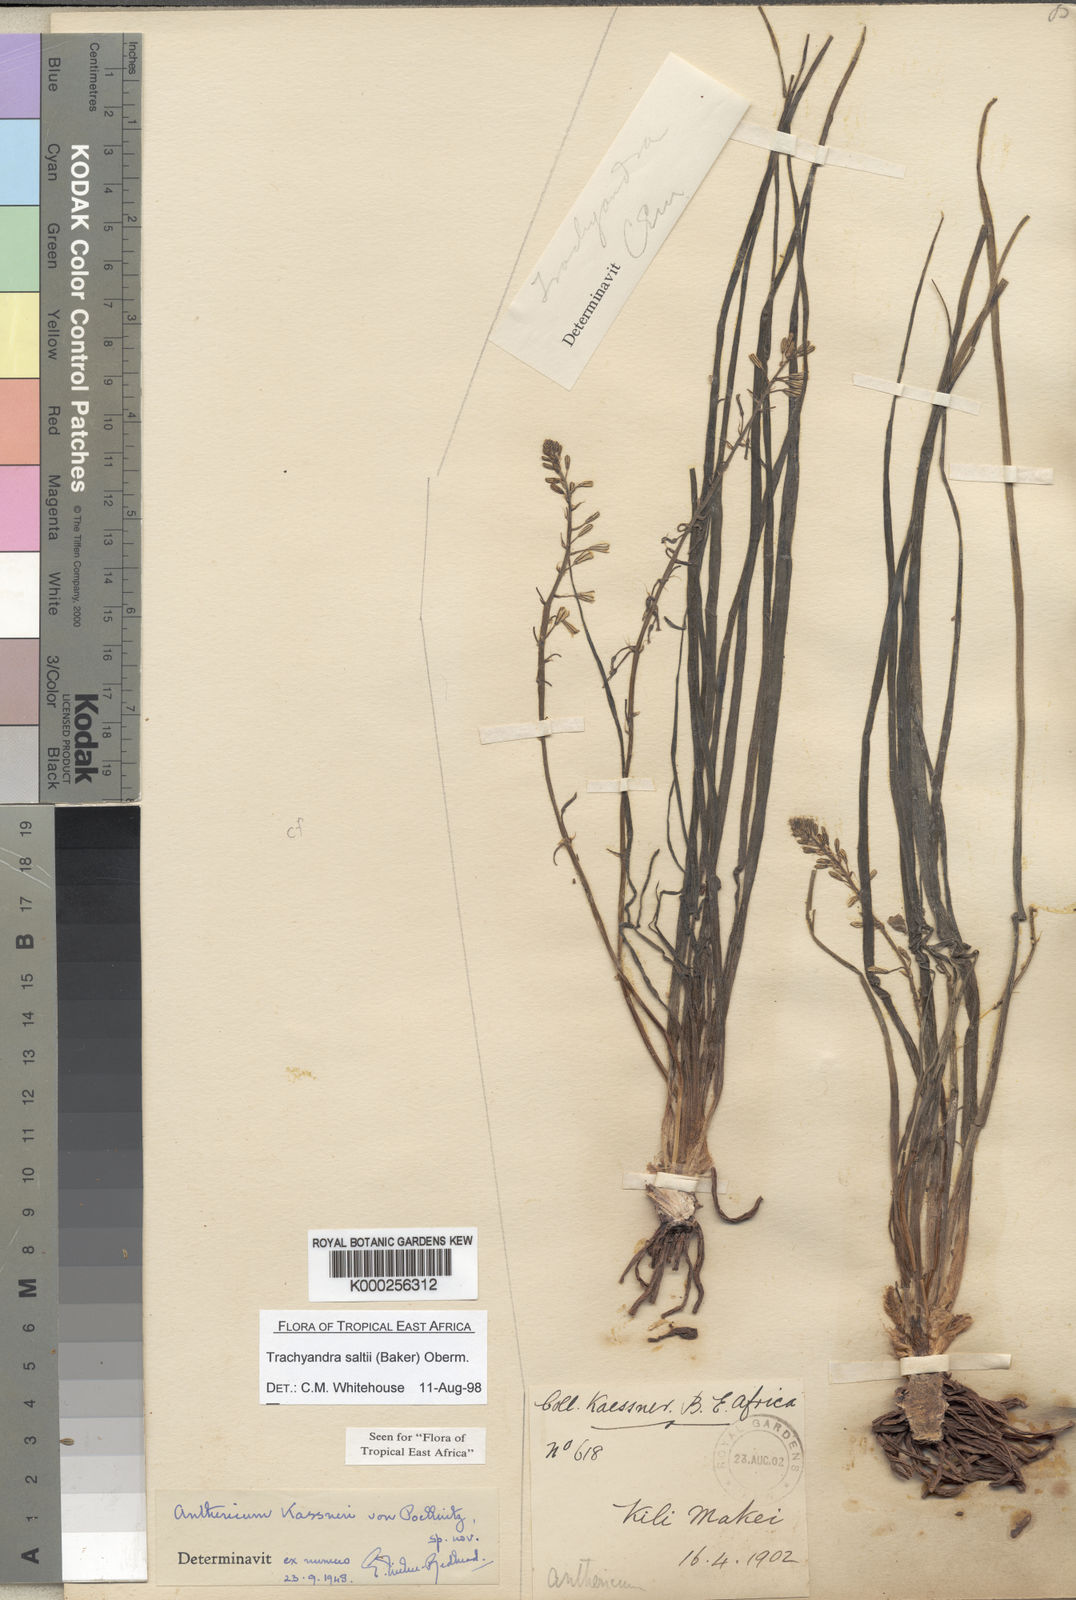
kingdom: Plantae
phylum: Tracheophyta
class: Liliopsida
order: Asparagales
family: Asphodelaceae
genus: Trachyandra
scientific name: Trachyandra saltii
